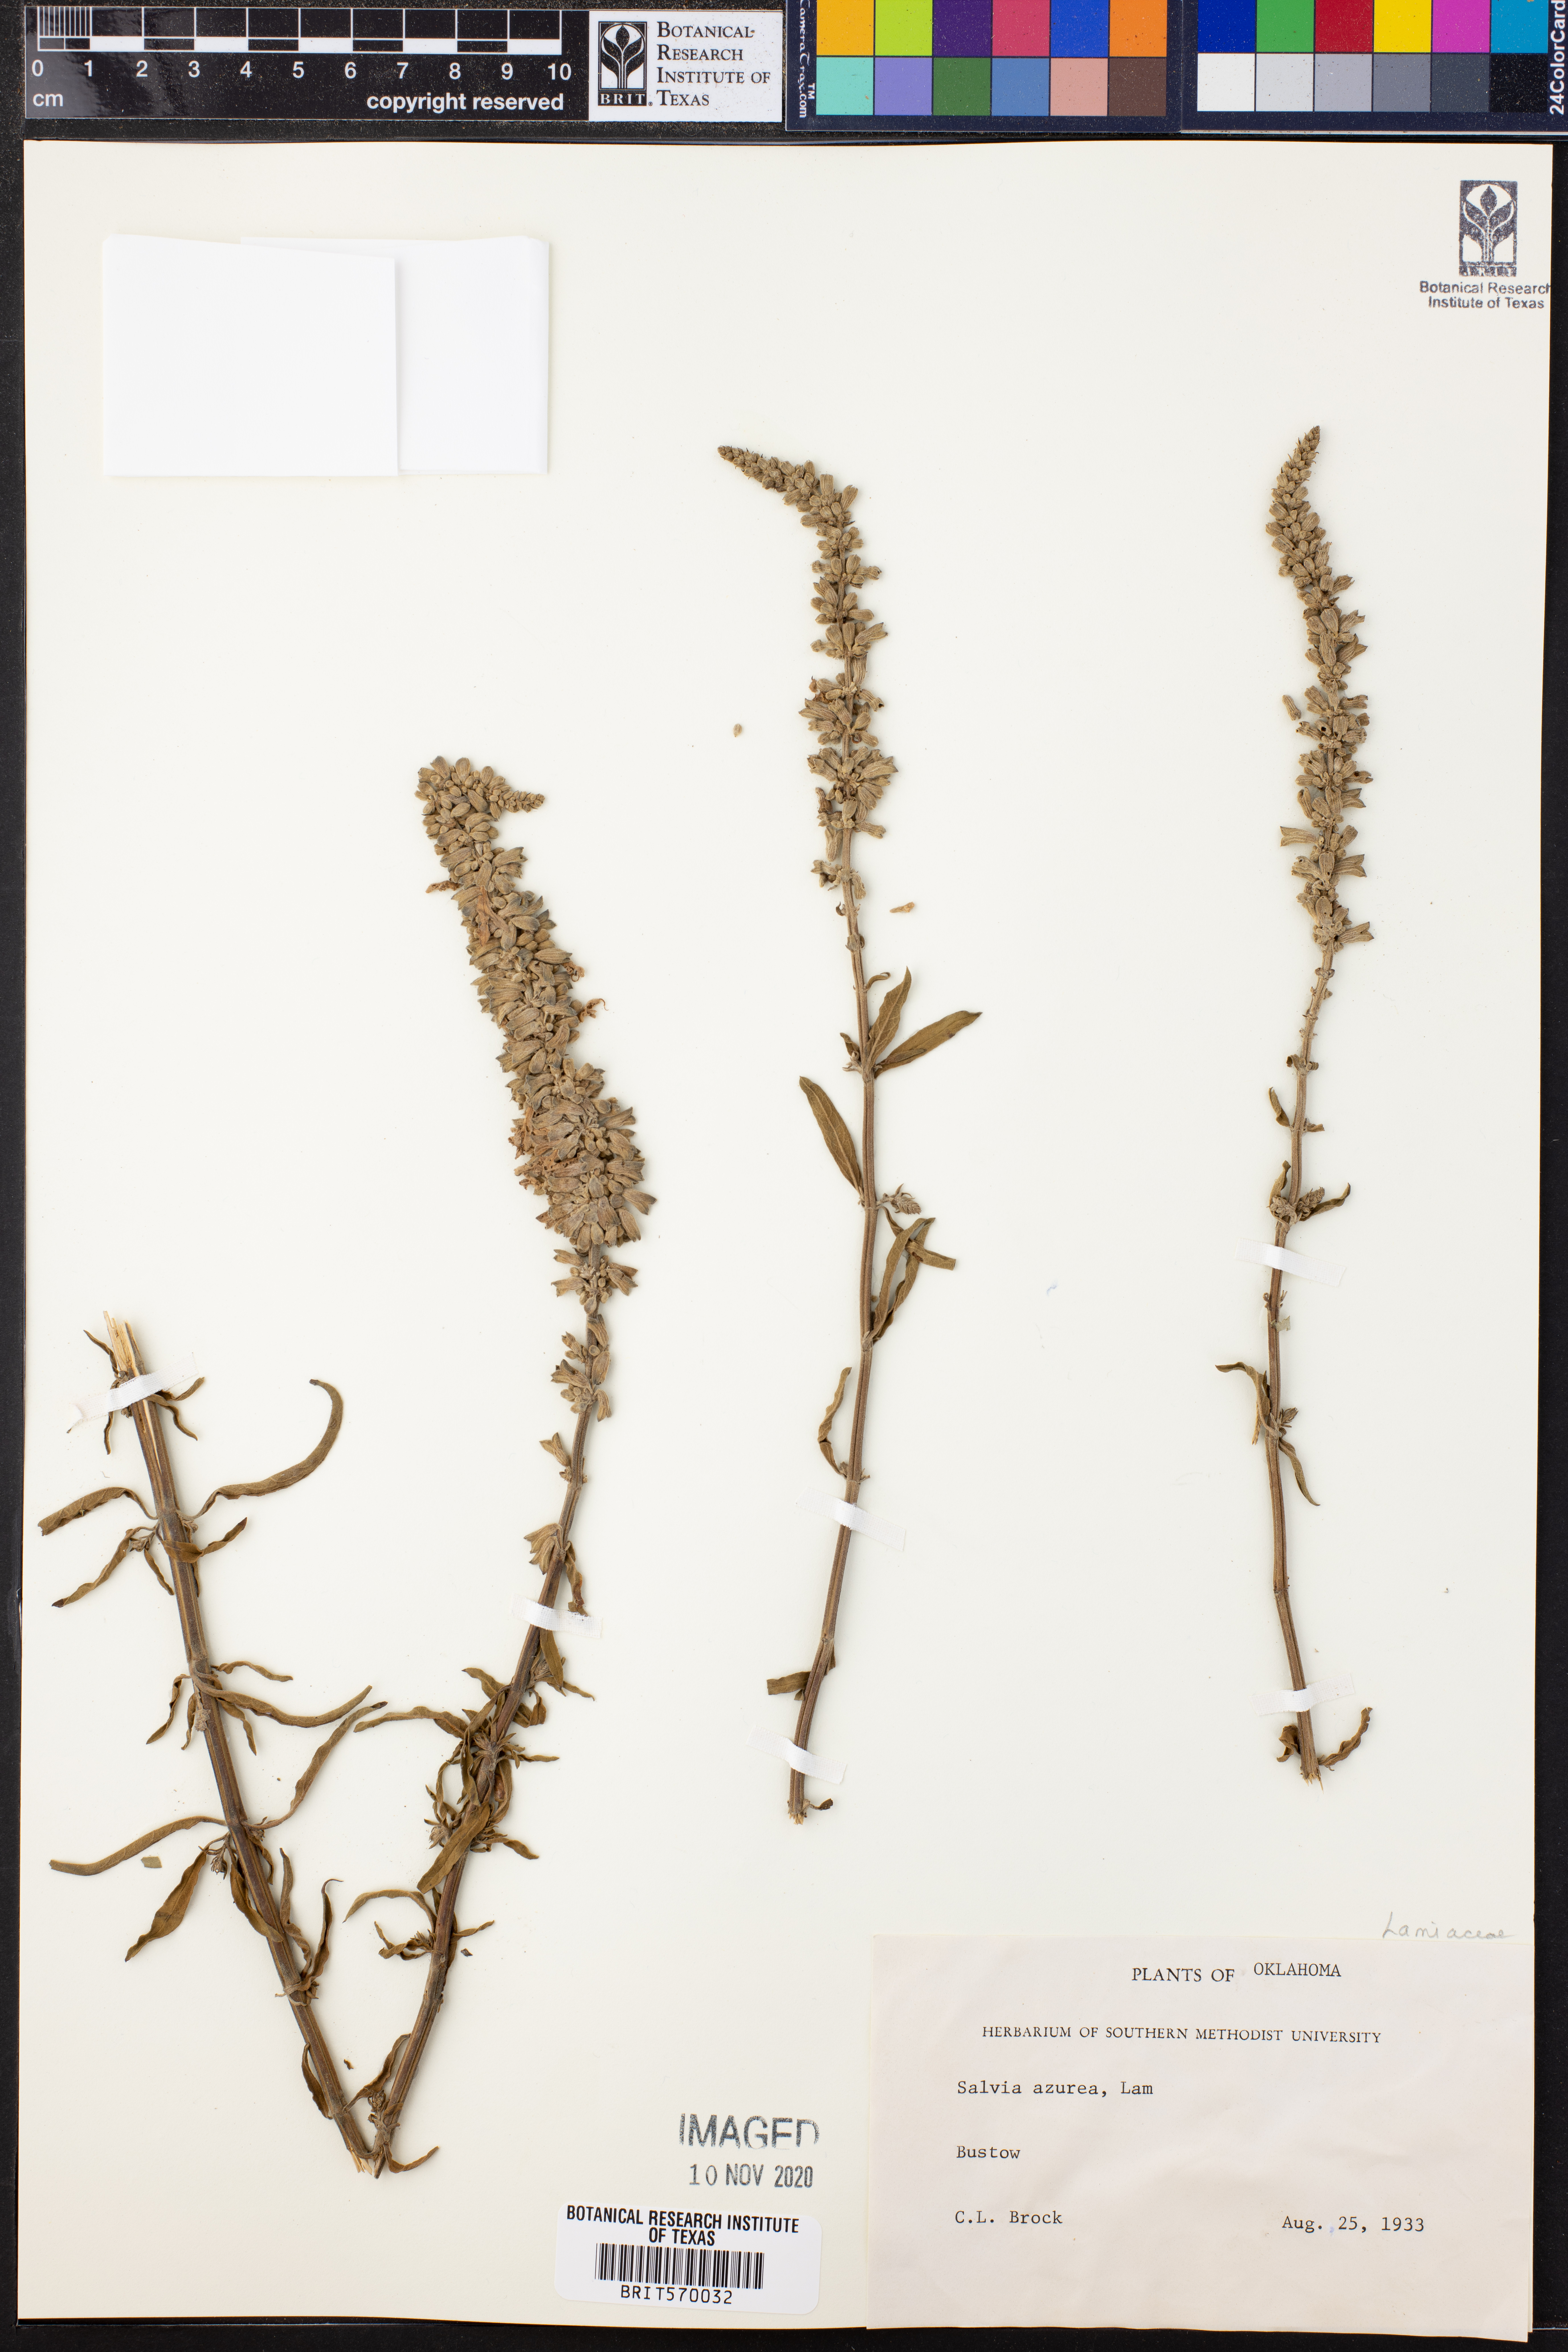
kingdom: Plantae
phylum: Tracheophyta
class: Magnoliopsida
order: Lamiales
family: Lamiaceae
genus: Salvia
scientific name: Salvia azurea
